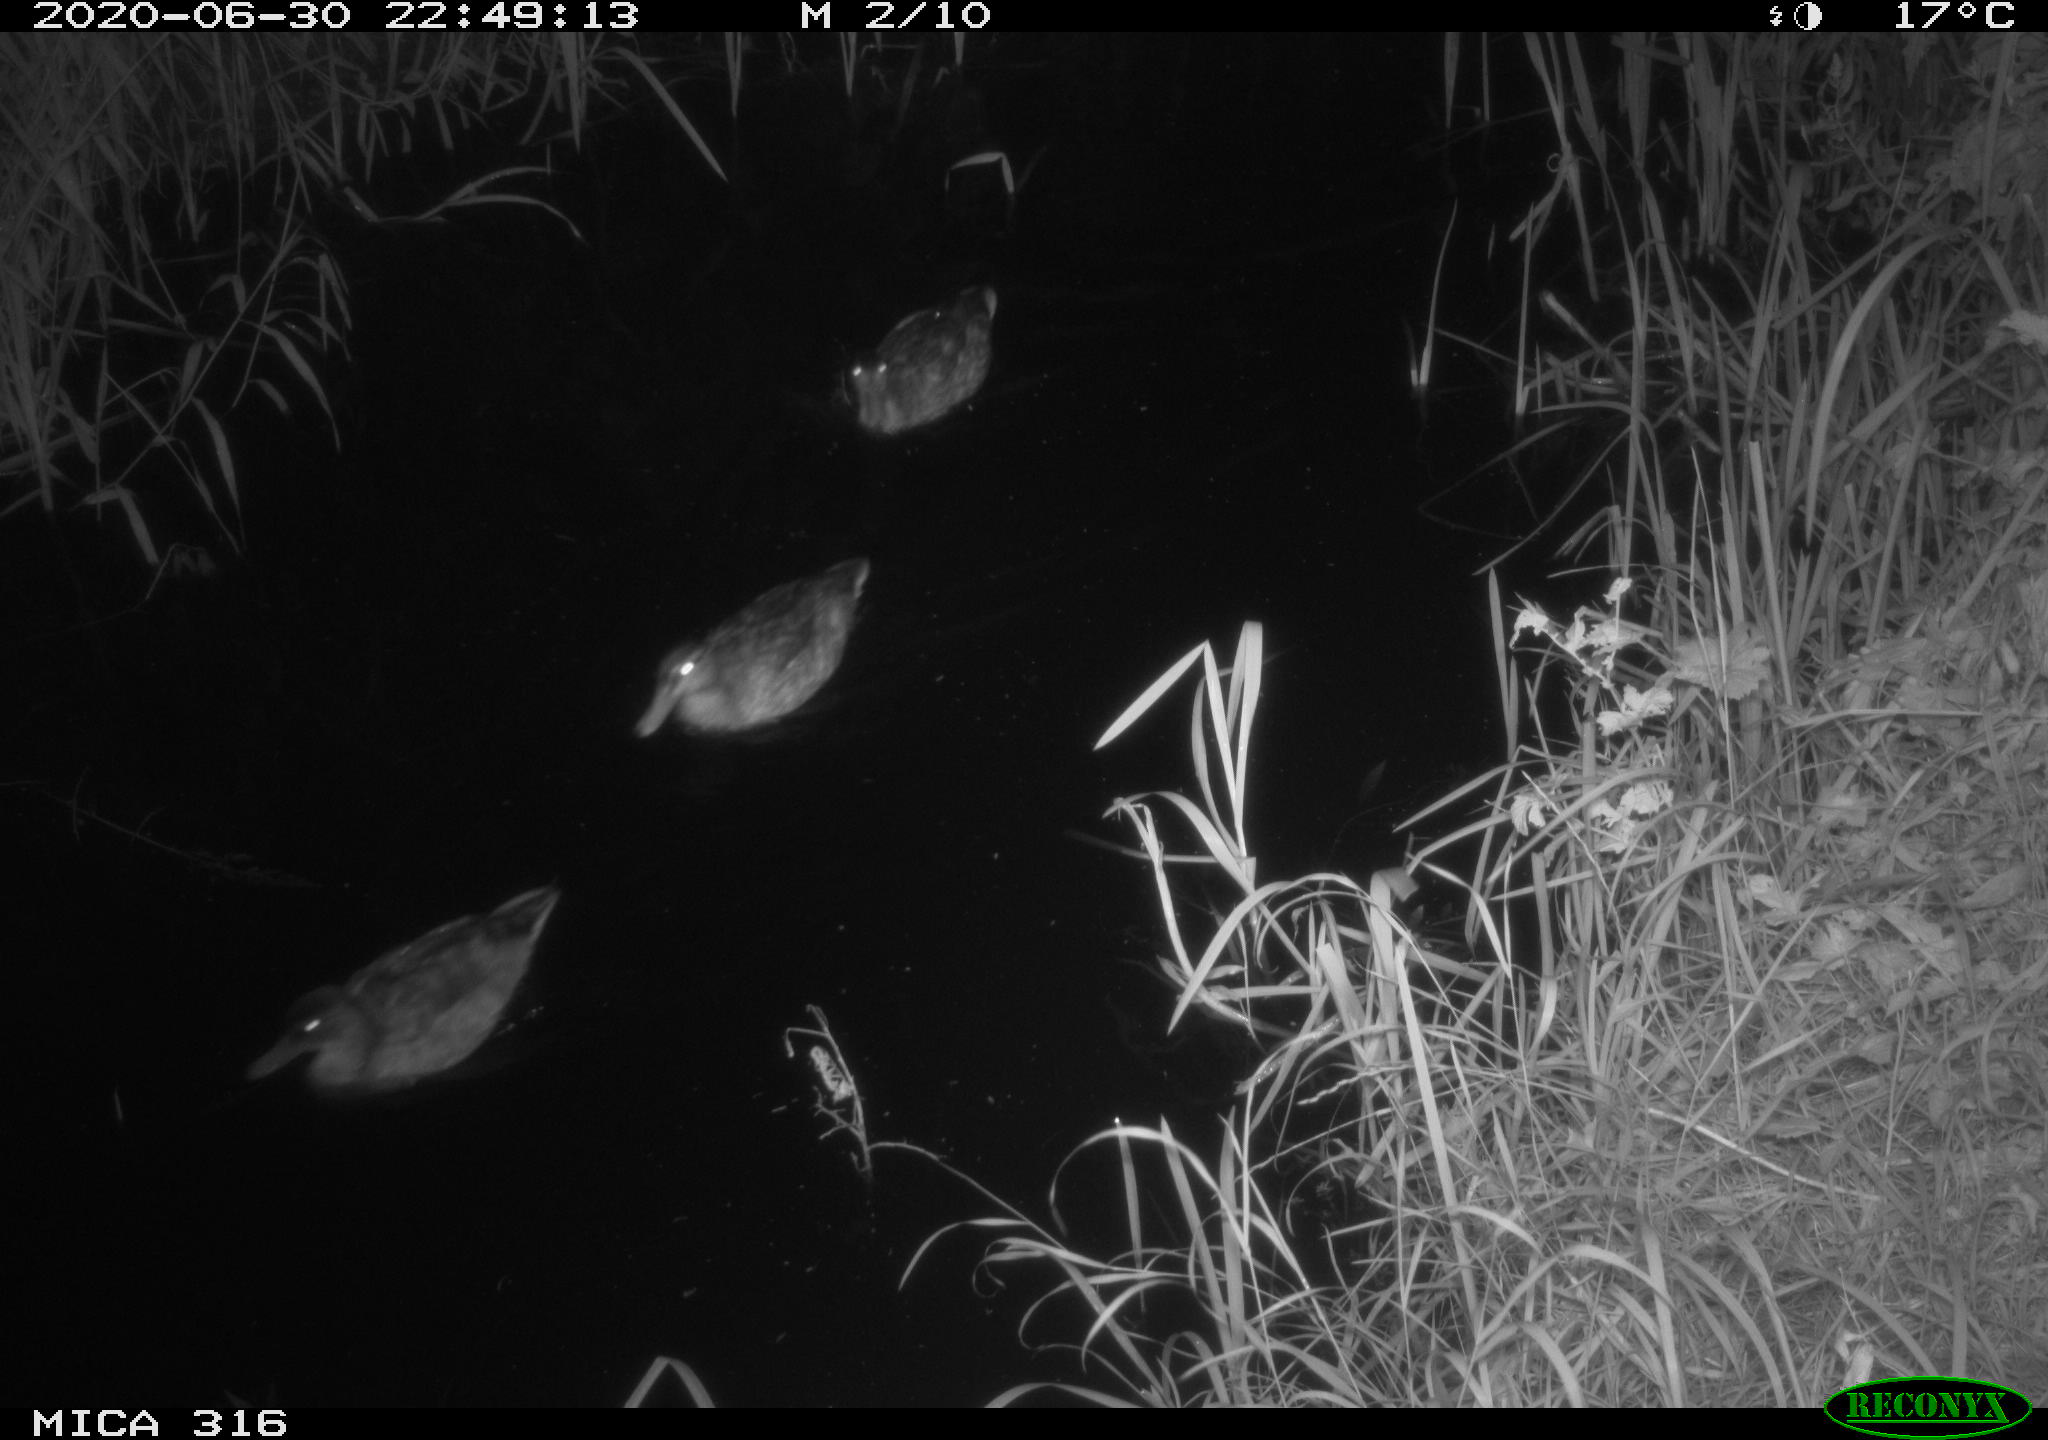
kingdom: Animalia
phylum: Chordata
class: Aves
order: Anseriformes
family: Anatidae
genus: Anas
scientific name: Anas platyrhynchos
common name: Mallard
